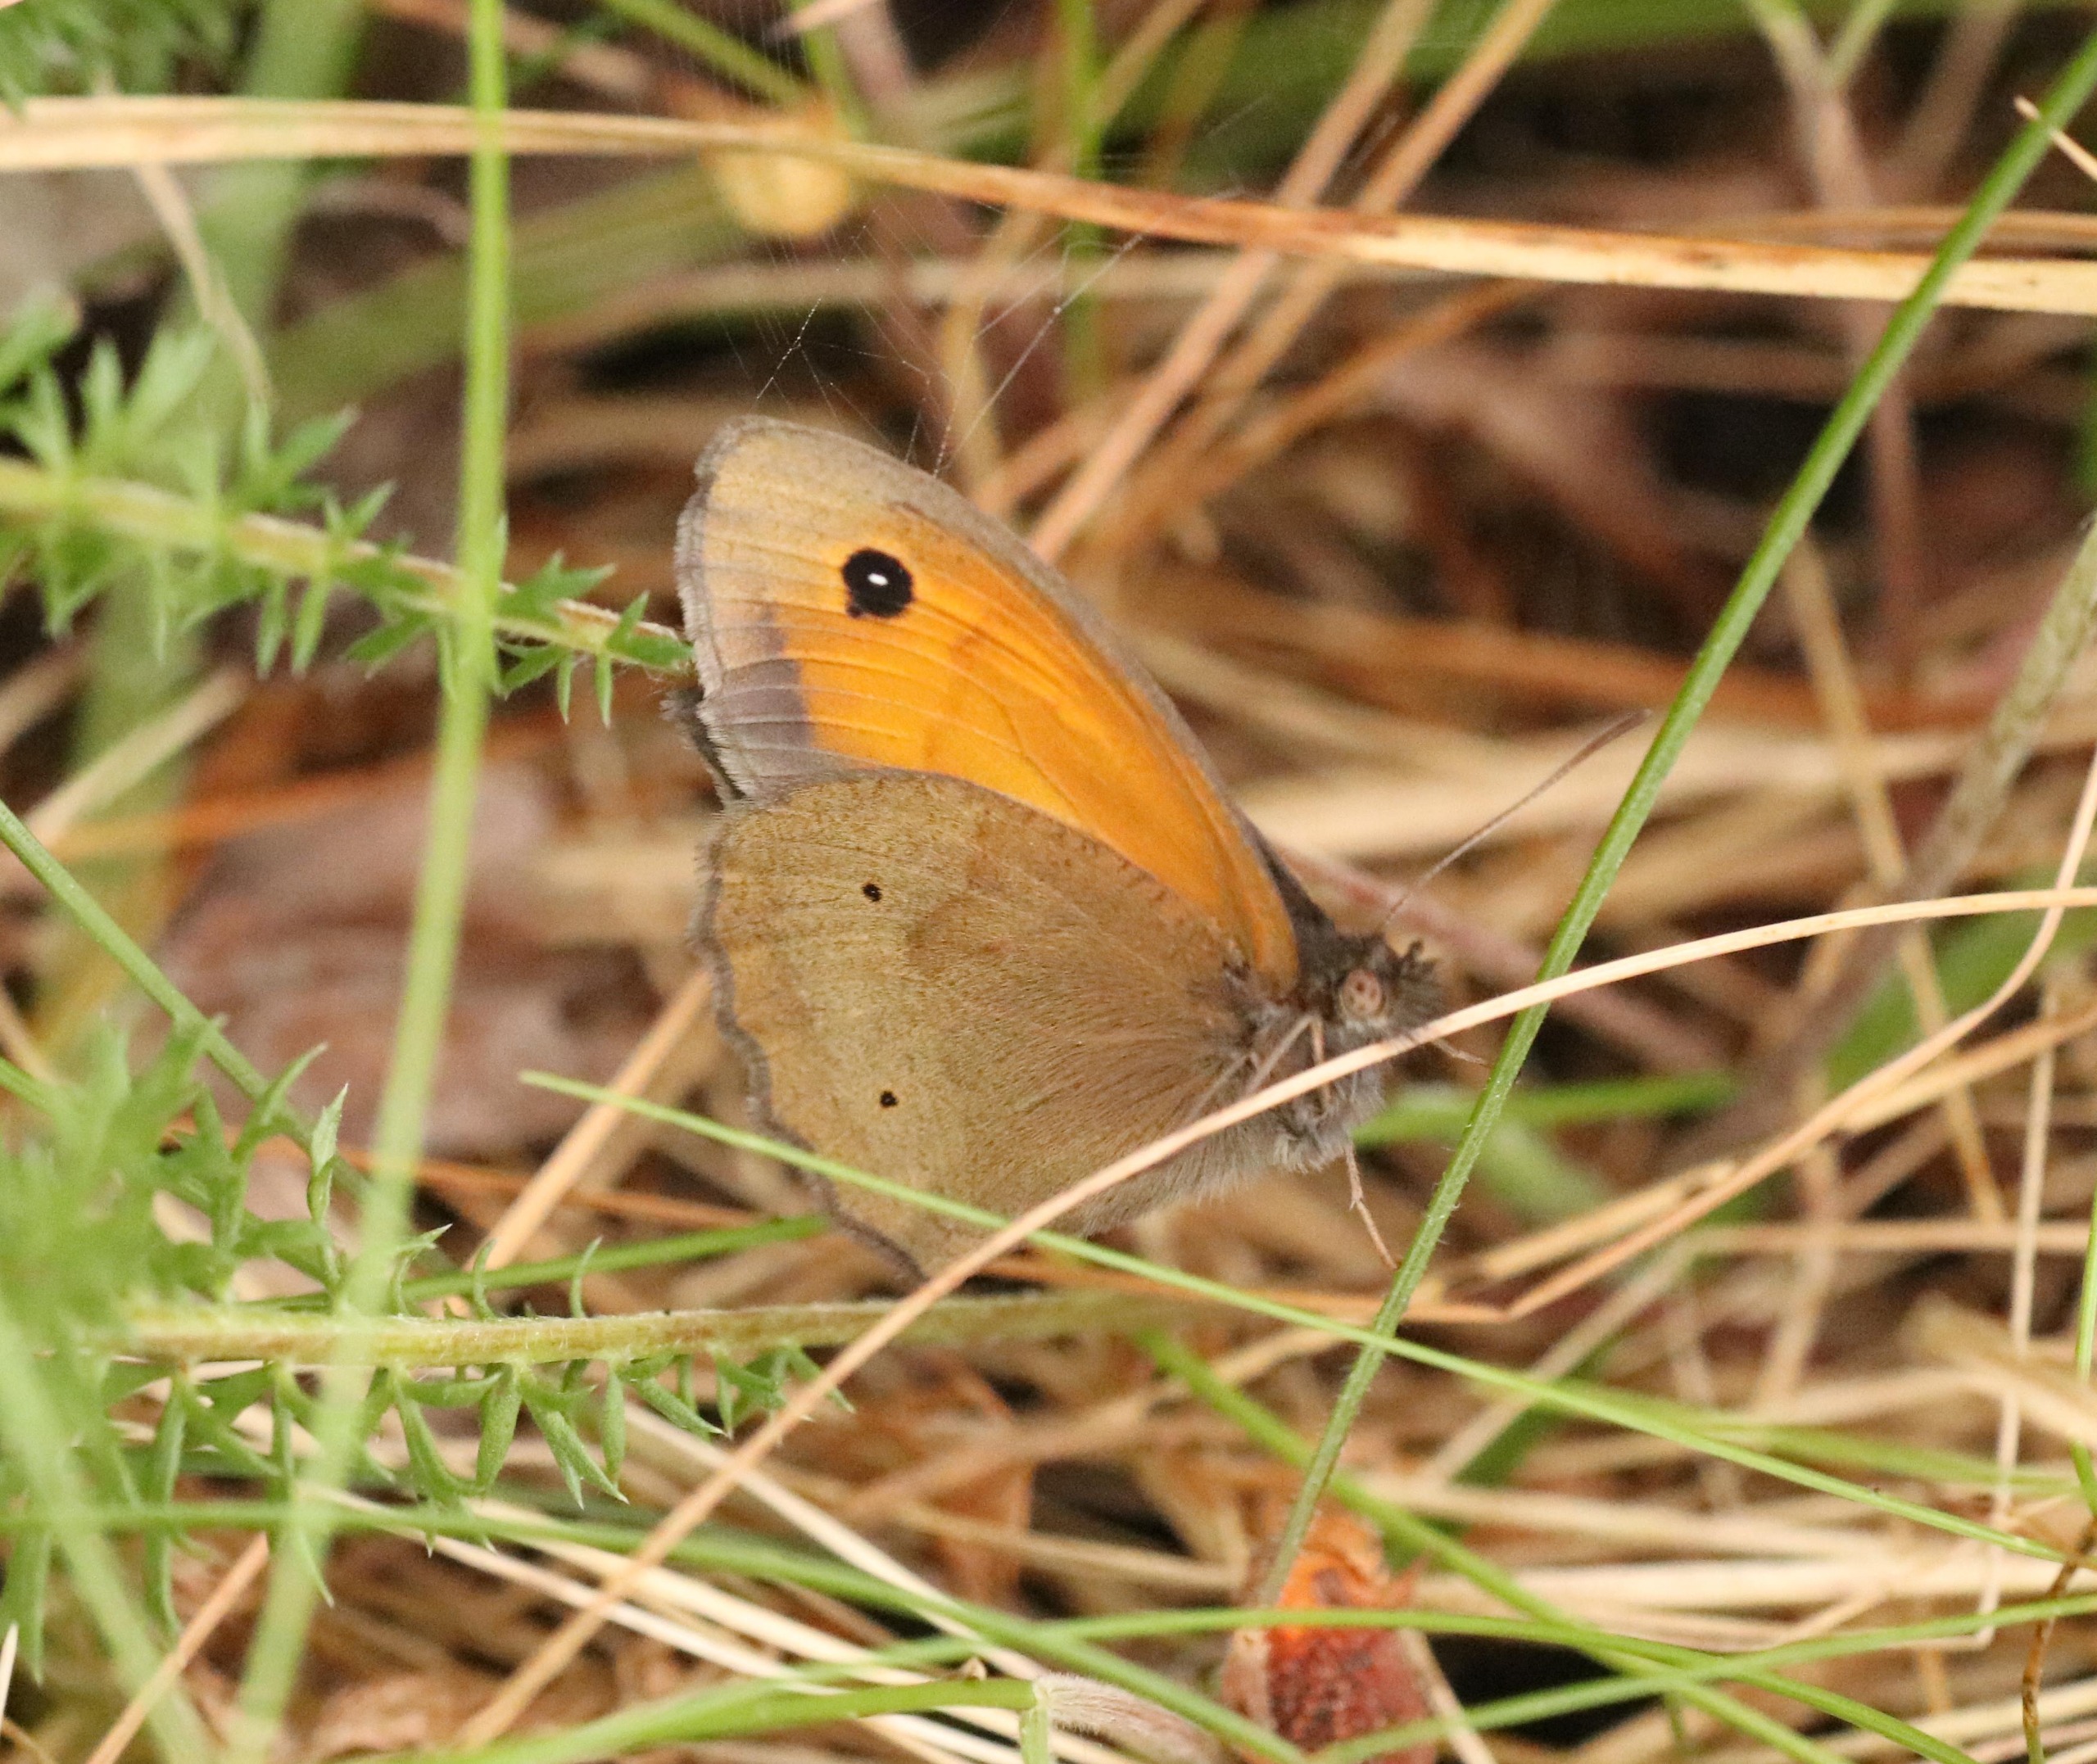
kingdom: Animalia
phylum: Arthropoda
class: Insecta
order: Lepidoptera
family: Nymphalidae
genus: Maniola
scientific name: Maniola jurtina
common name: Græsrandøje
